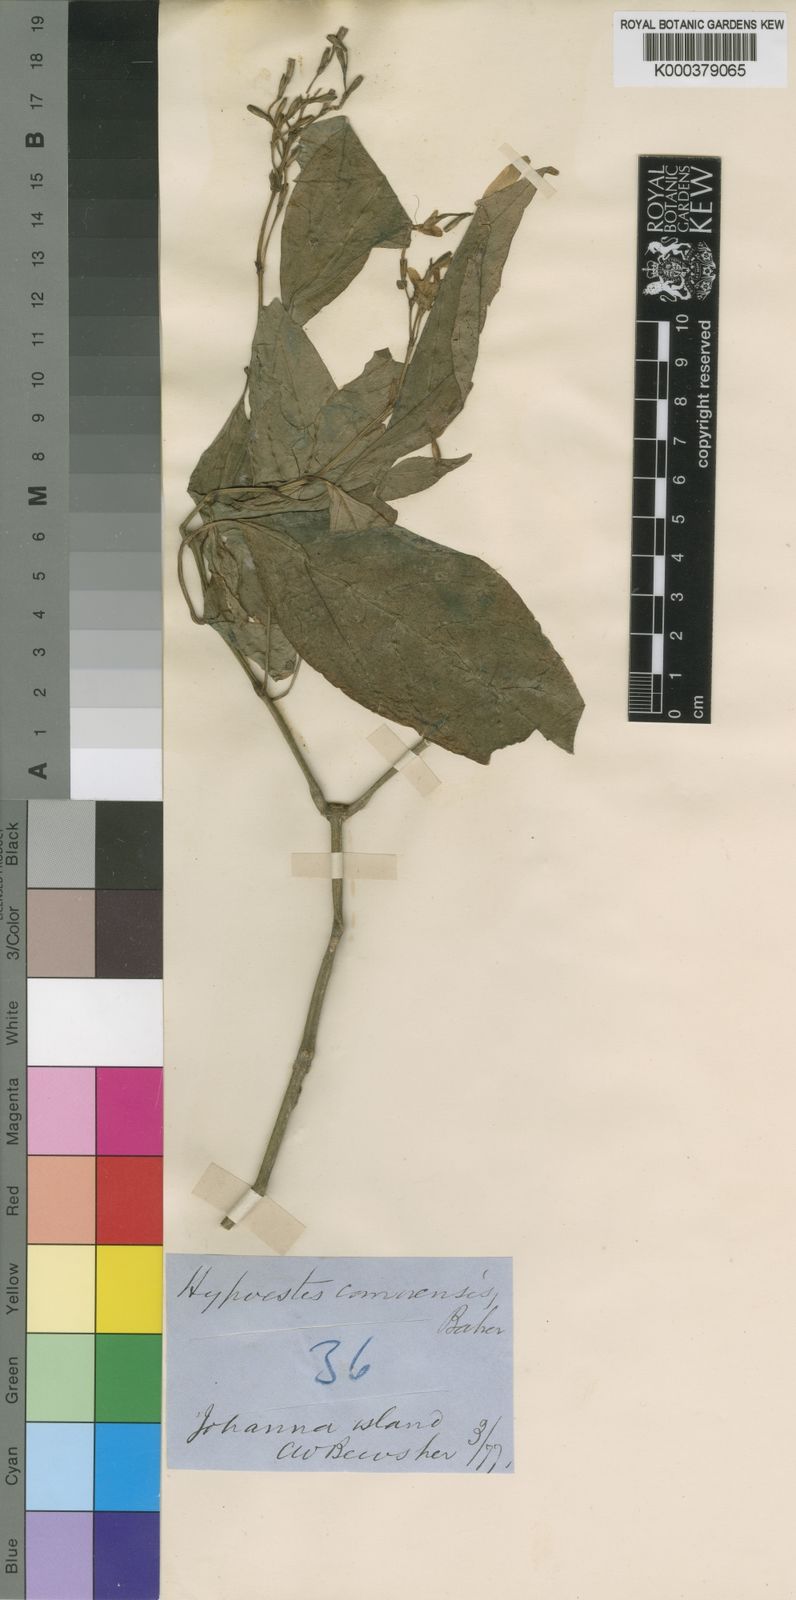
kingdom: Plantae
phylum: Tracheophyta
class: Magnoliopsida
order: Lamiales
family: Acanthaceae
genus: Hypoestes
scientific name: Hypoestes comorensis
